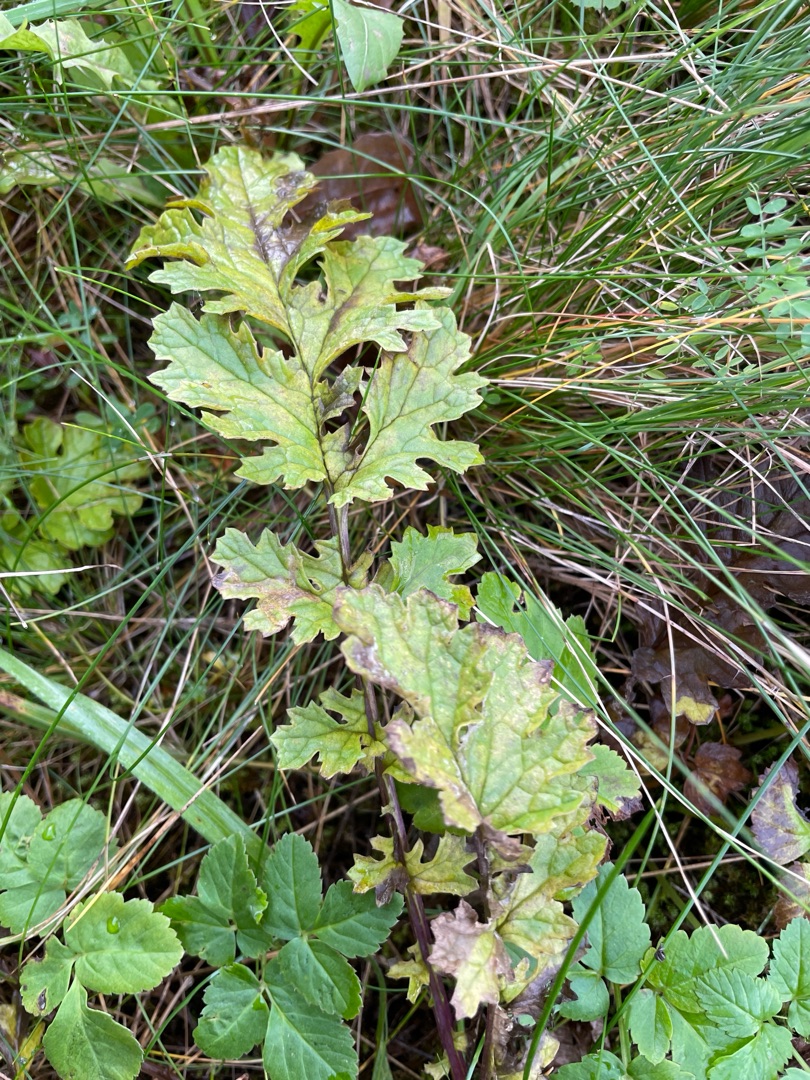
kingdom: Plantae
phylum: Tracheophyta
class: Magnoliopsida
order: Asterales
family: Asteraceae
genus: Jacobaea
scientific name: Jacobaea vulgaris
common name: Eng-brandbæger
